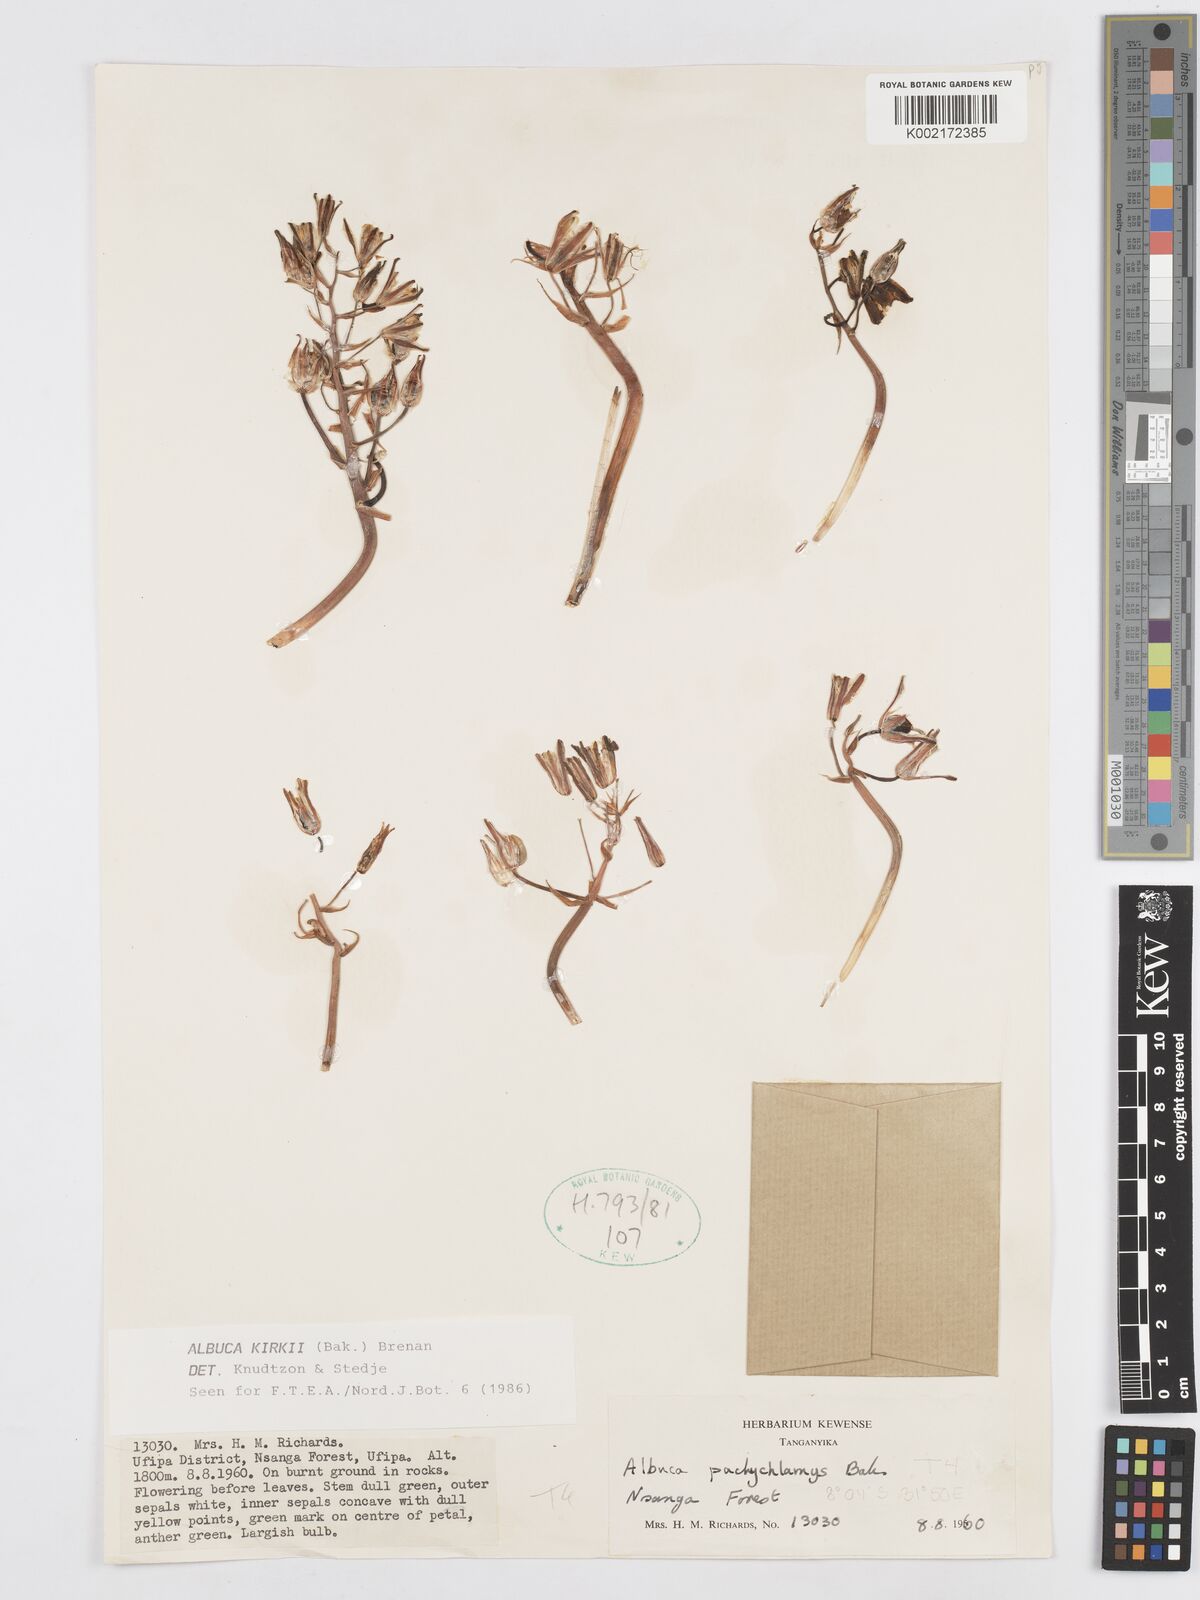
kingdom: Plantae
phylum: Tracheophyta
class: Liliopsida
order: Asparagales
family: Asparagaceae
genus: Albuca
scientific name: Albuca kirkii
